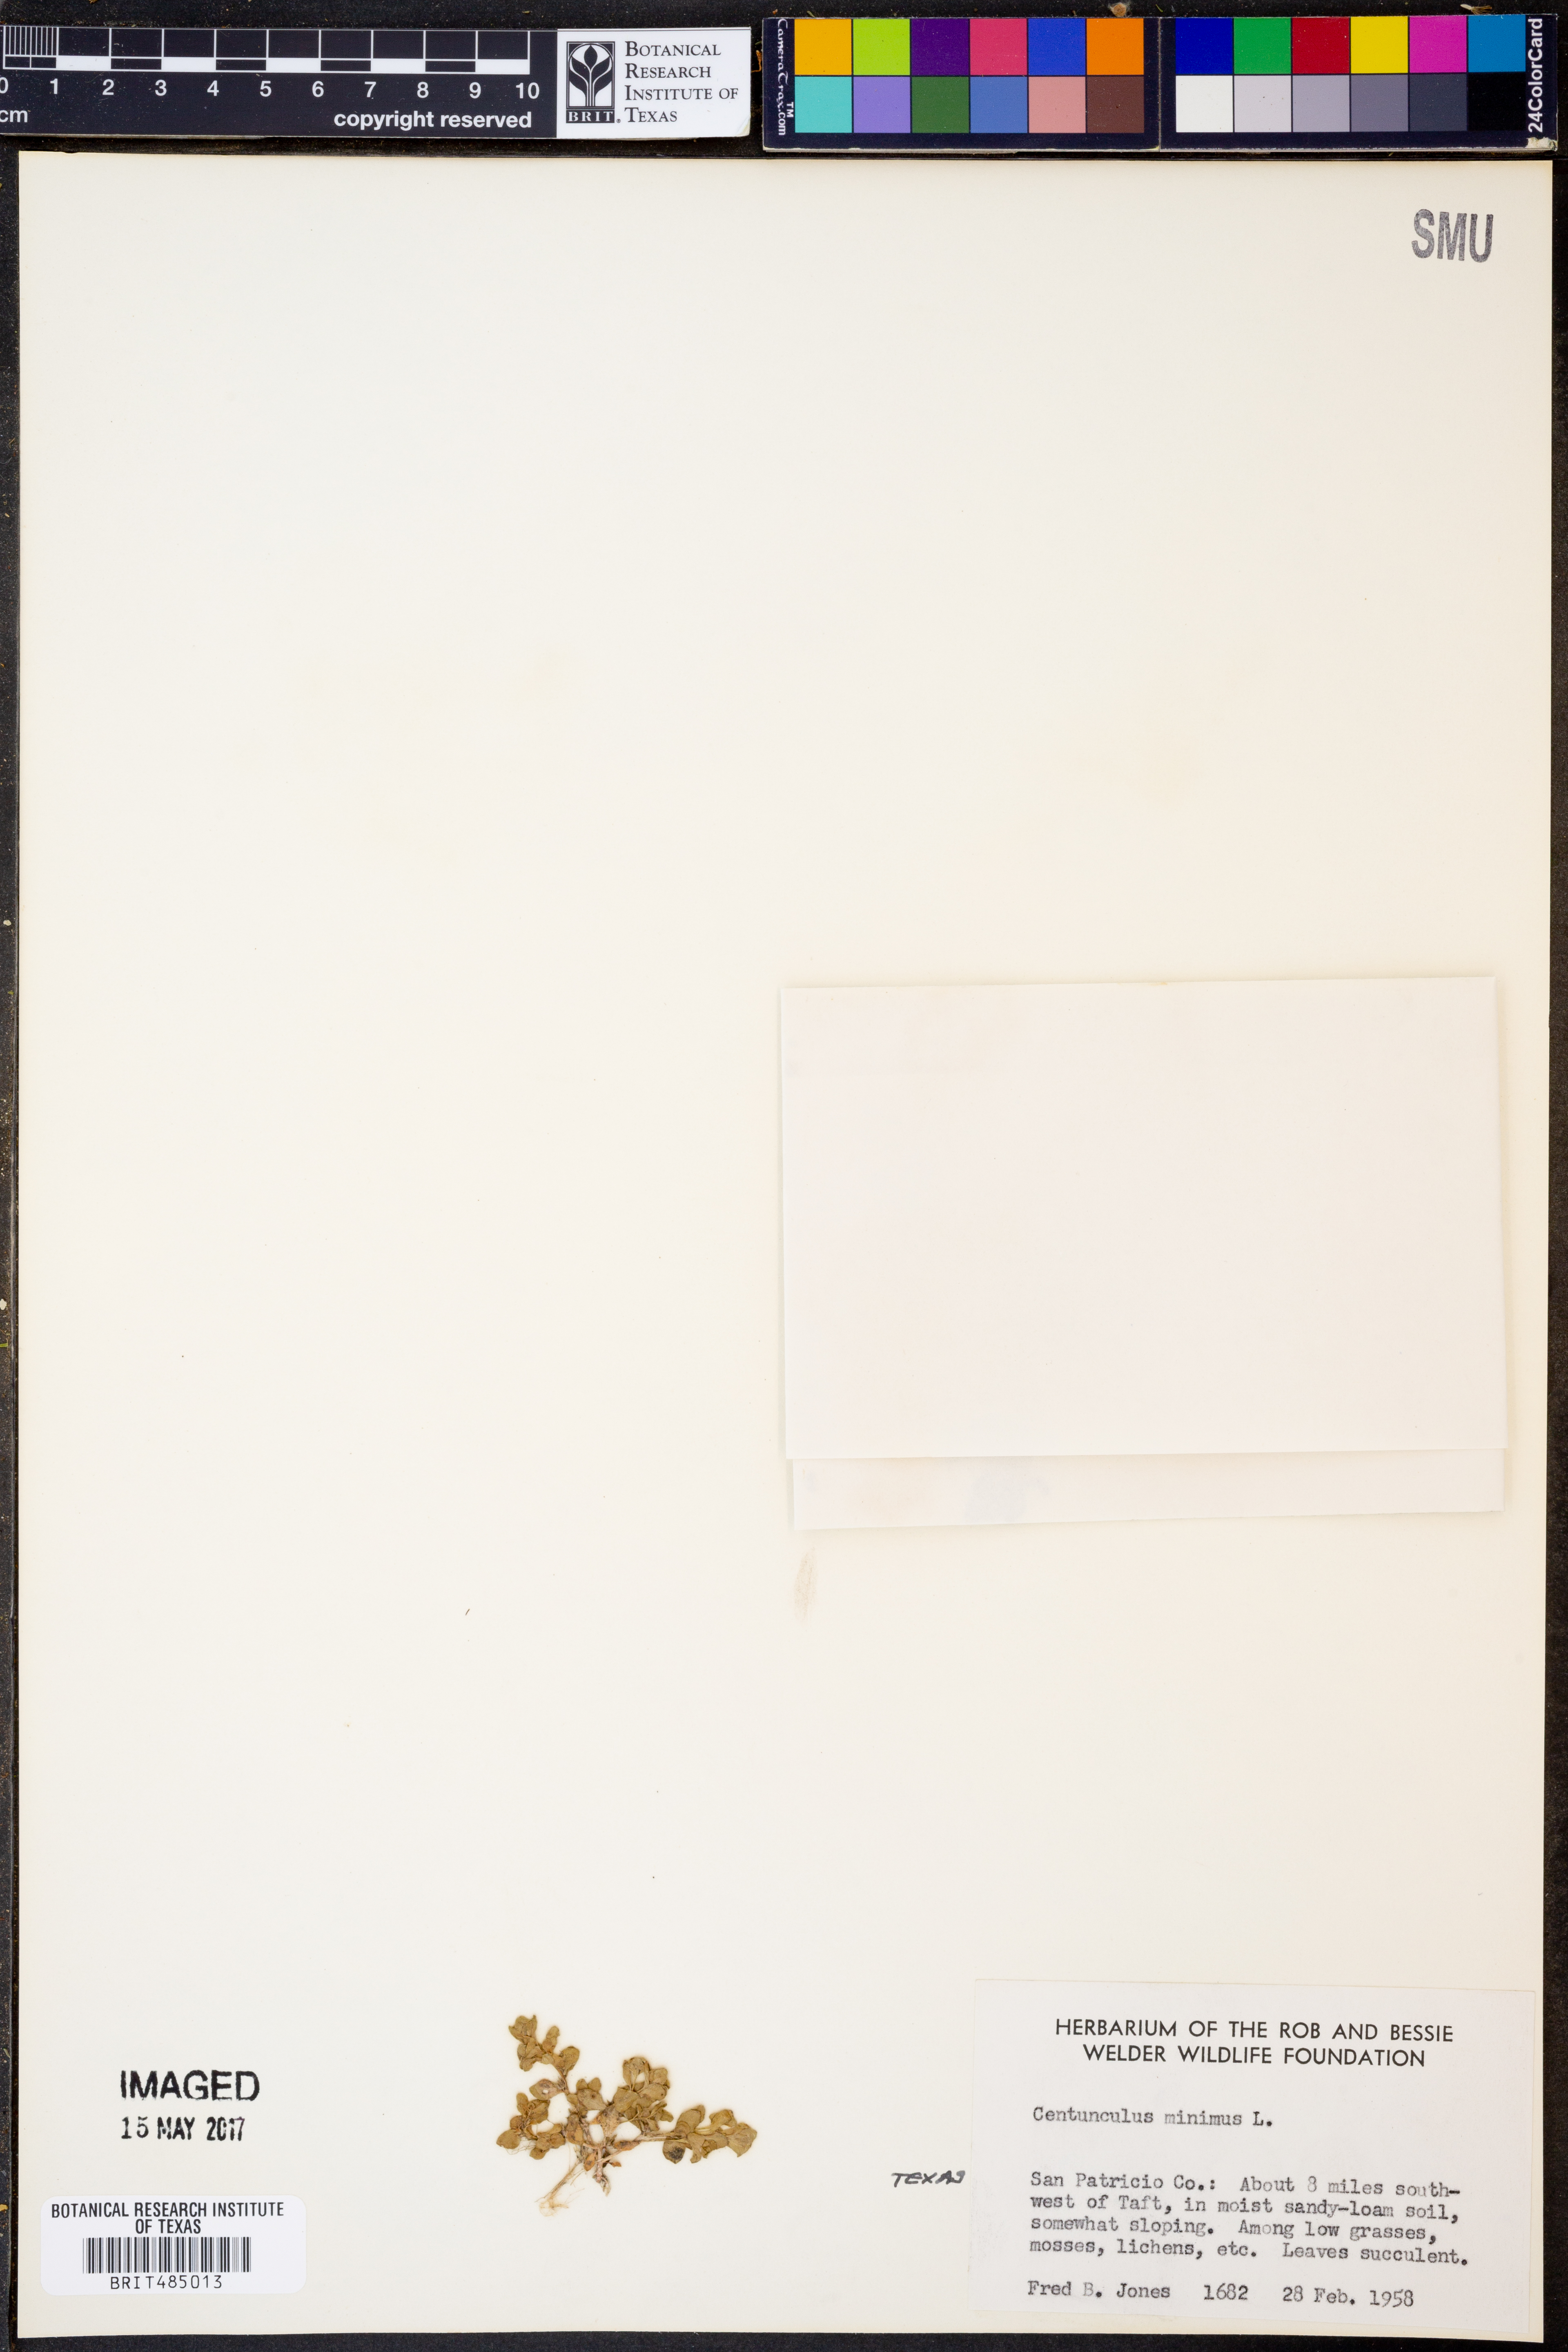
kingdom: Plantae
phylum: Tracheophyta
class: Magnoliopsida
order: Ericales
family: Primulaceae
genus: Lysimachia
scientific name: Lysimachia minima
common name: Chaffweed
